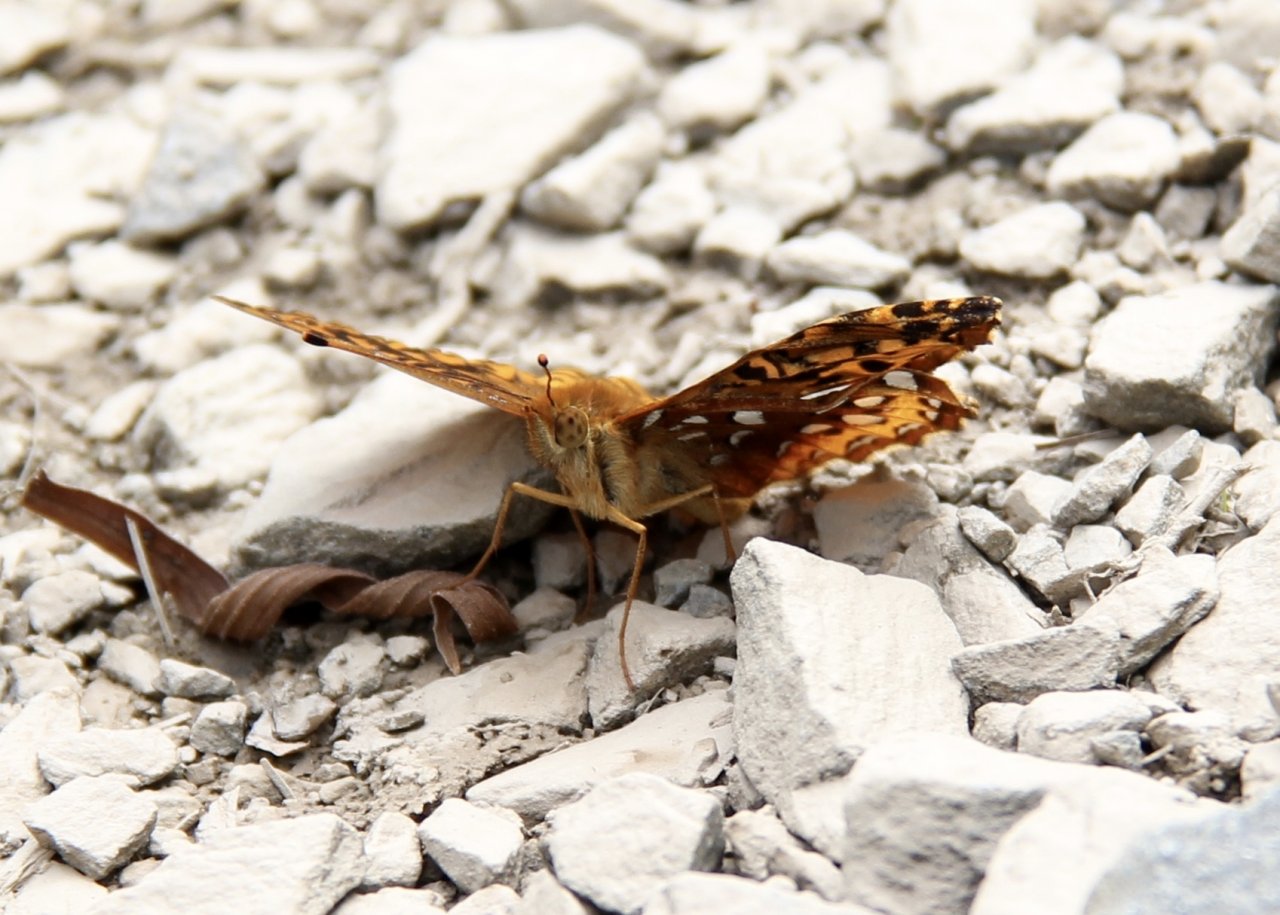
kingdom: Animalia
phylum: Arthropoda
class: Insecta
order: Lepidoptera
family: Nymphalidae
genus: Speyeria
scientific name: Speyeria cybele
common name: Great Spangled Fritillary
